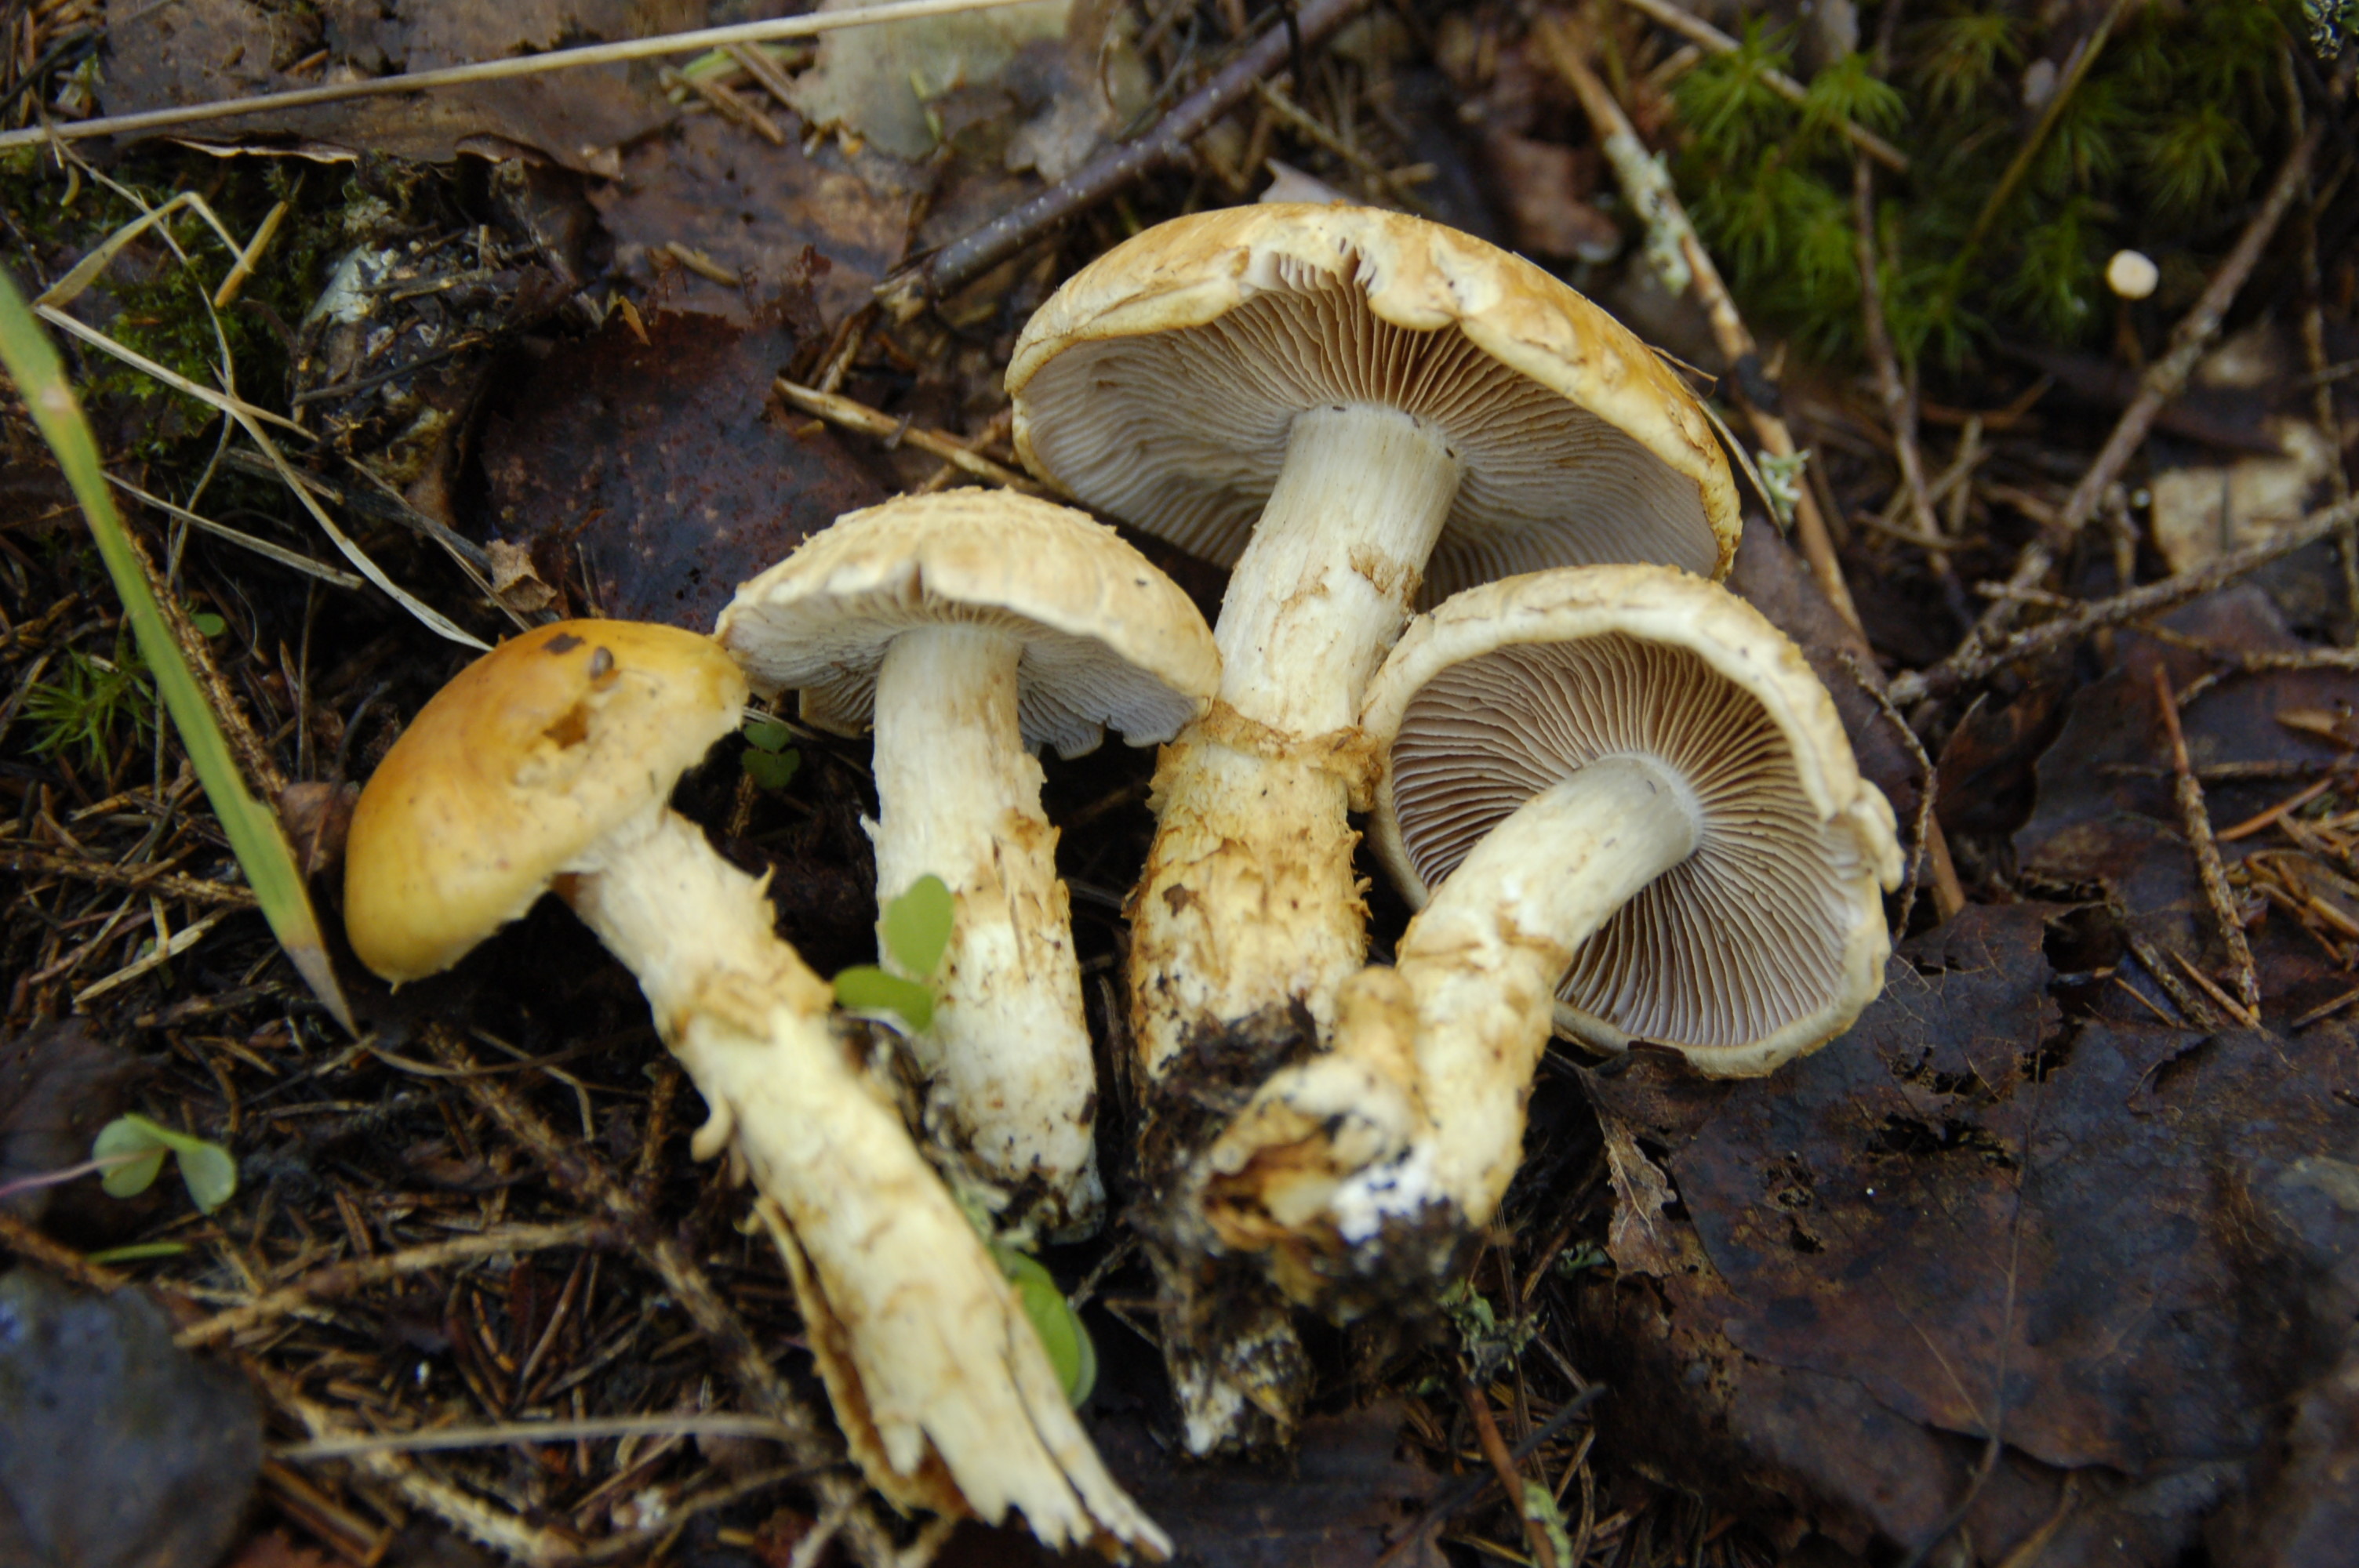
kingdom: Fungi
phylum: Basidiomycota
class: Agaricomycetes
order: Agaricales
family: Cortinariaceae
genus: Phlegmacium
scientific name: Phlegmacium triumphans
